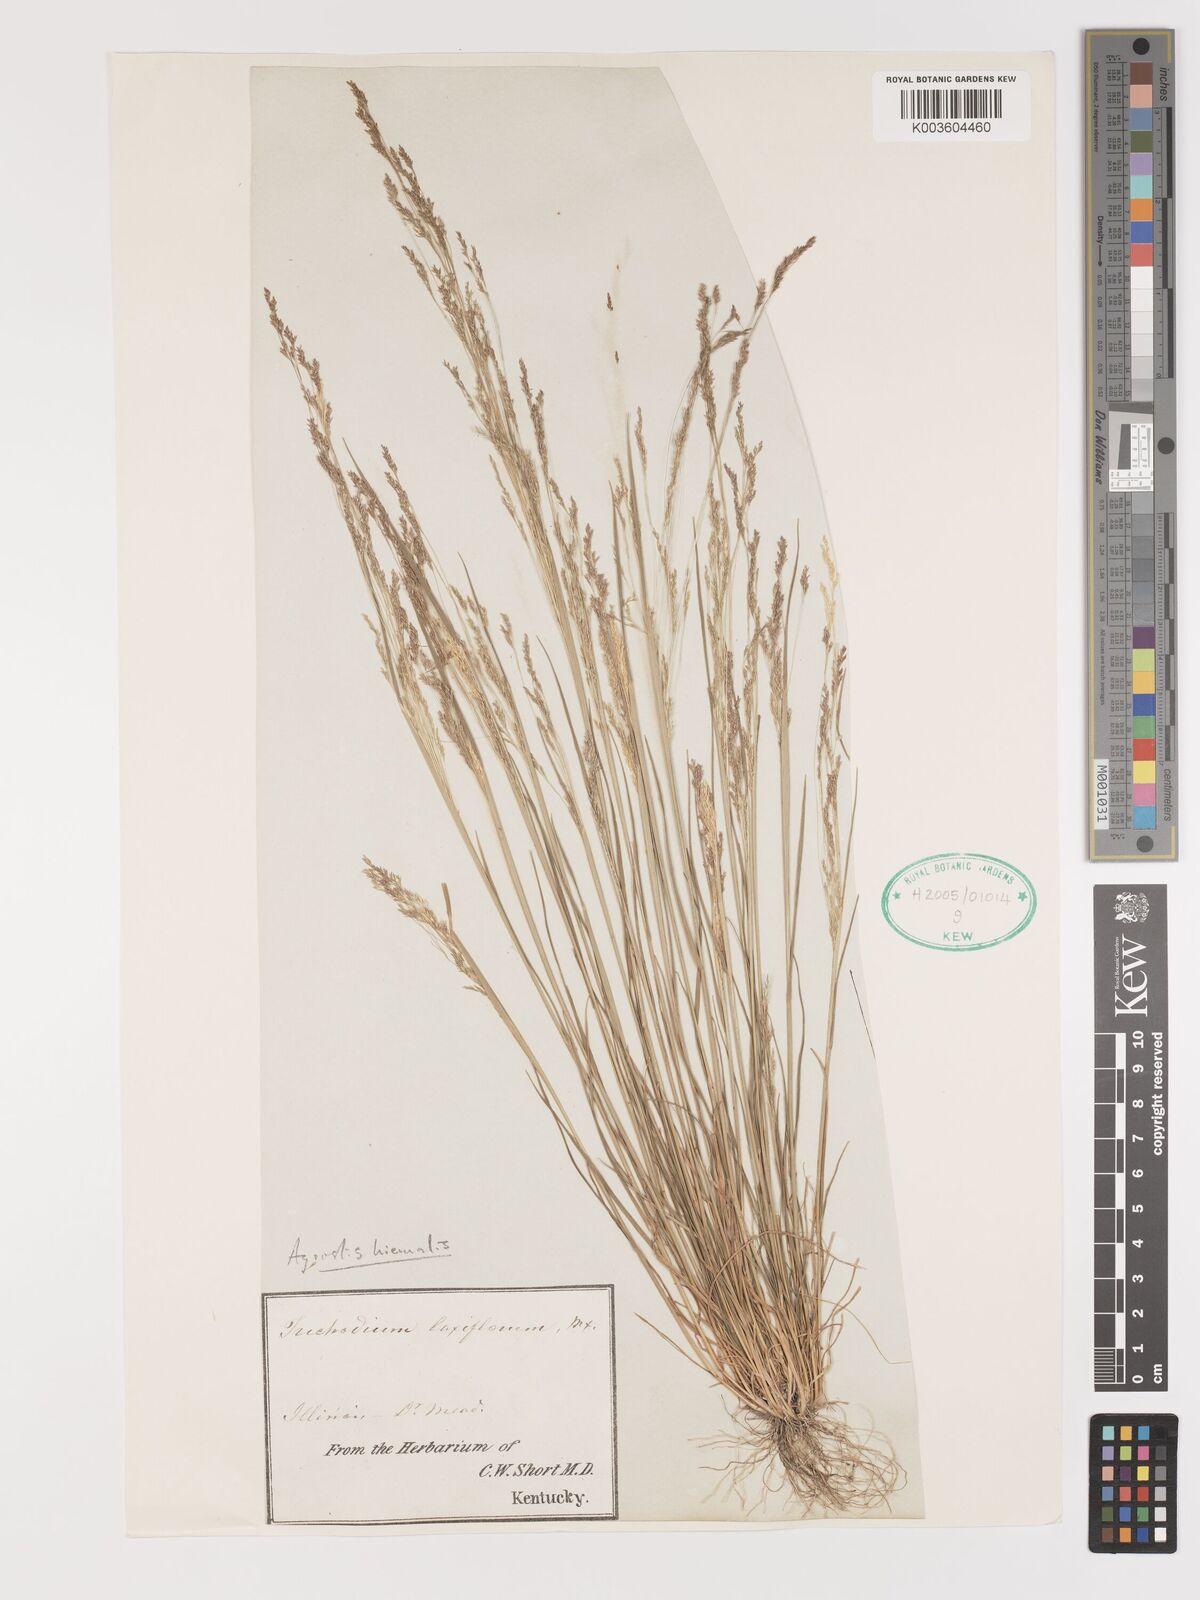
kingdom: Plantae
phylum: Tracheophyta
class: Liliopsida
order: Poales
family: Poaceae
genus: Agrostis
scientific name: Agrostis hyemalis
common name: Small bent
